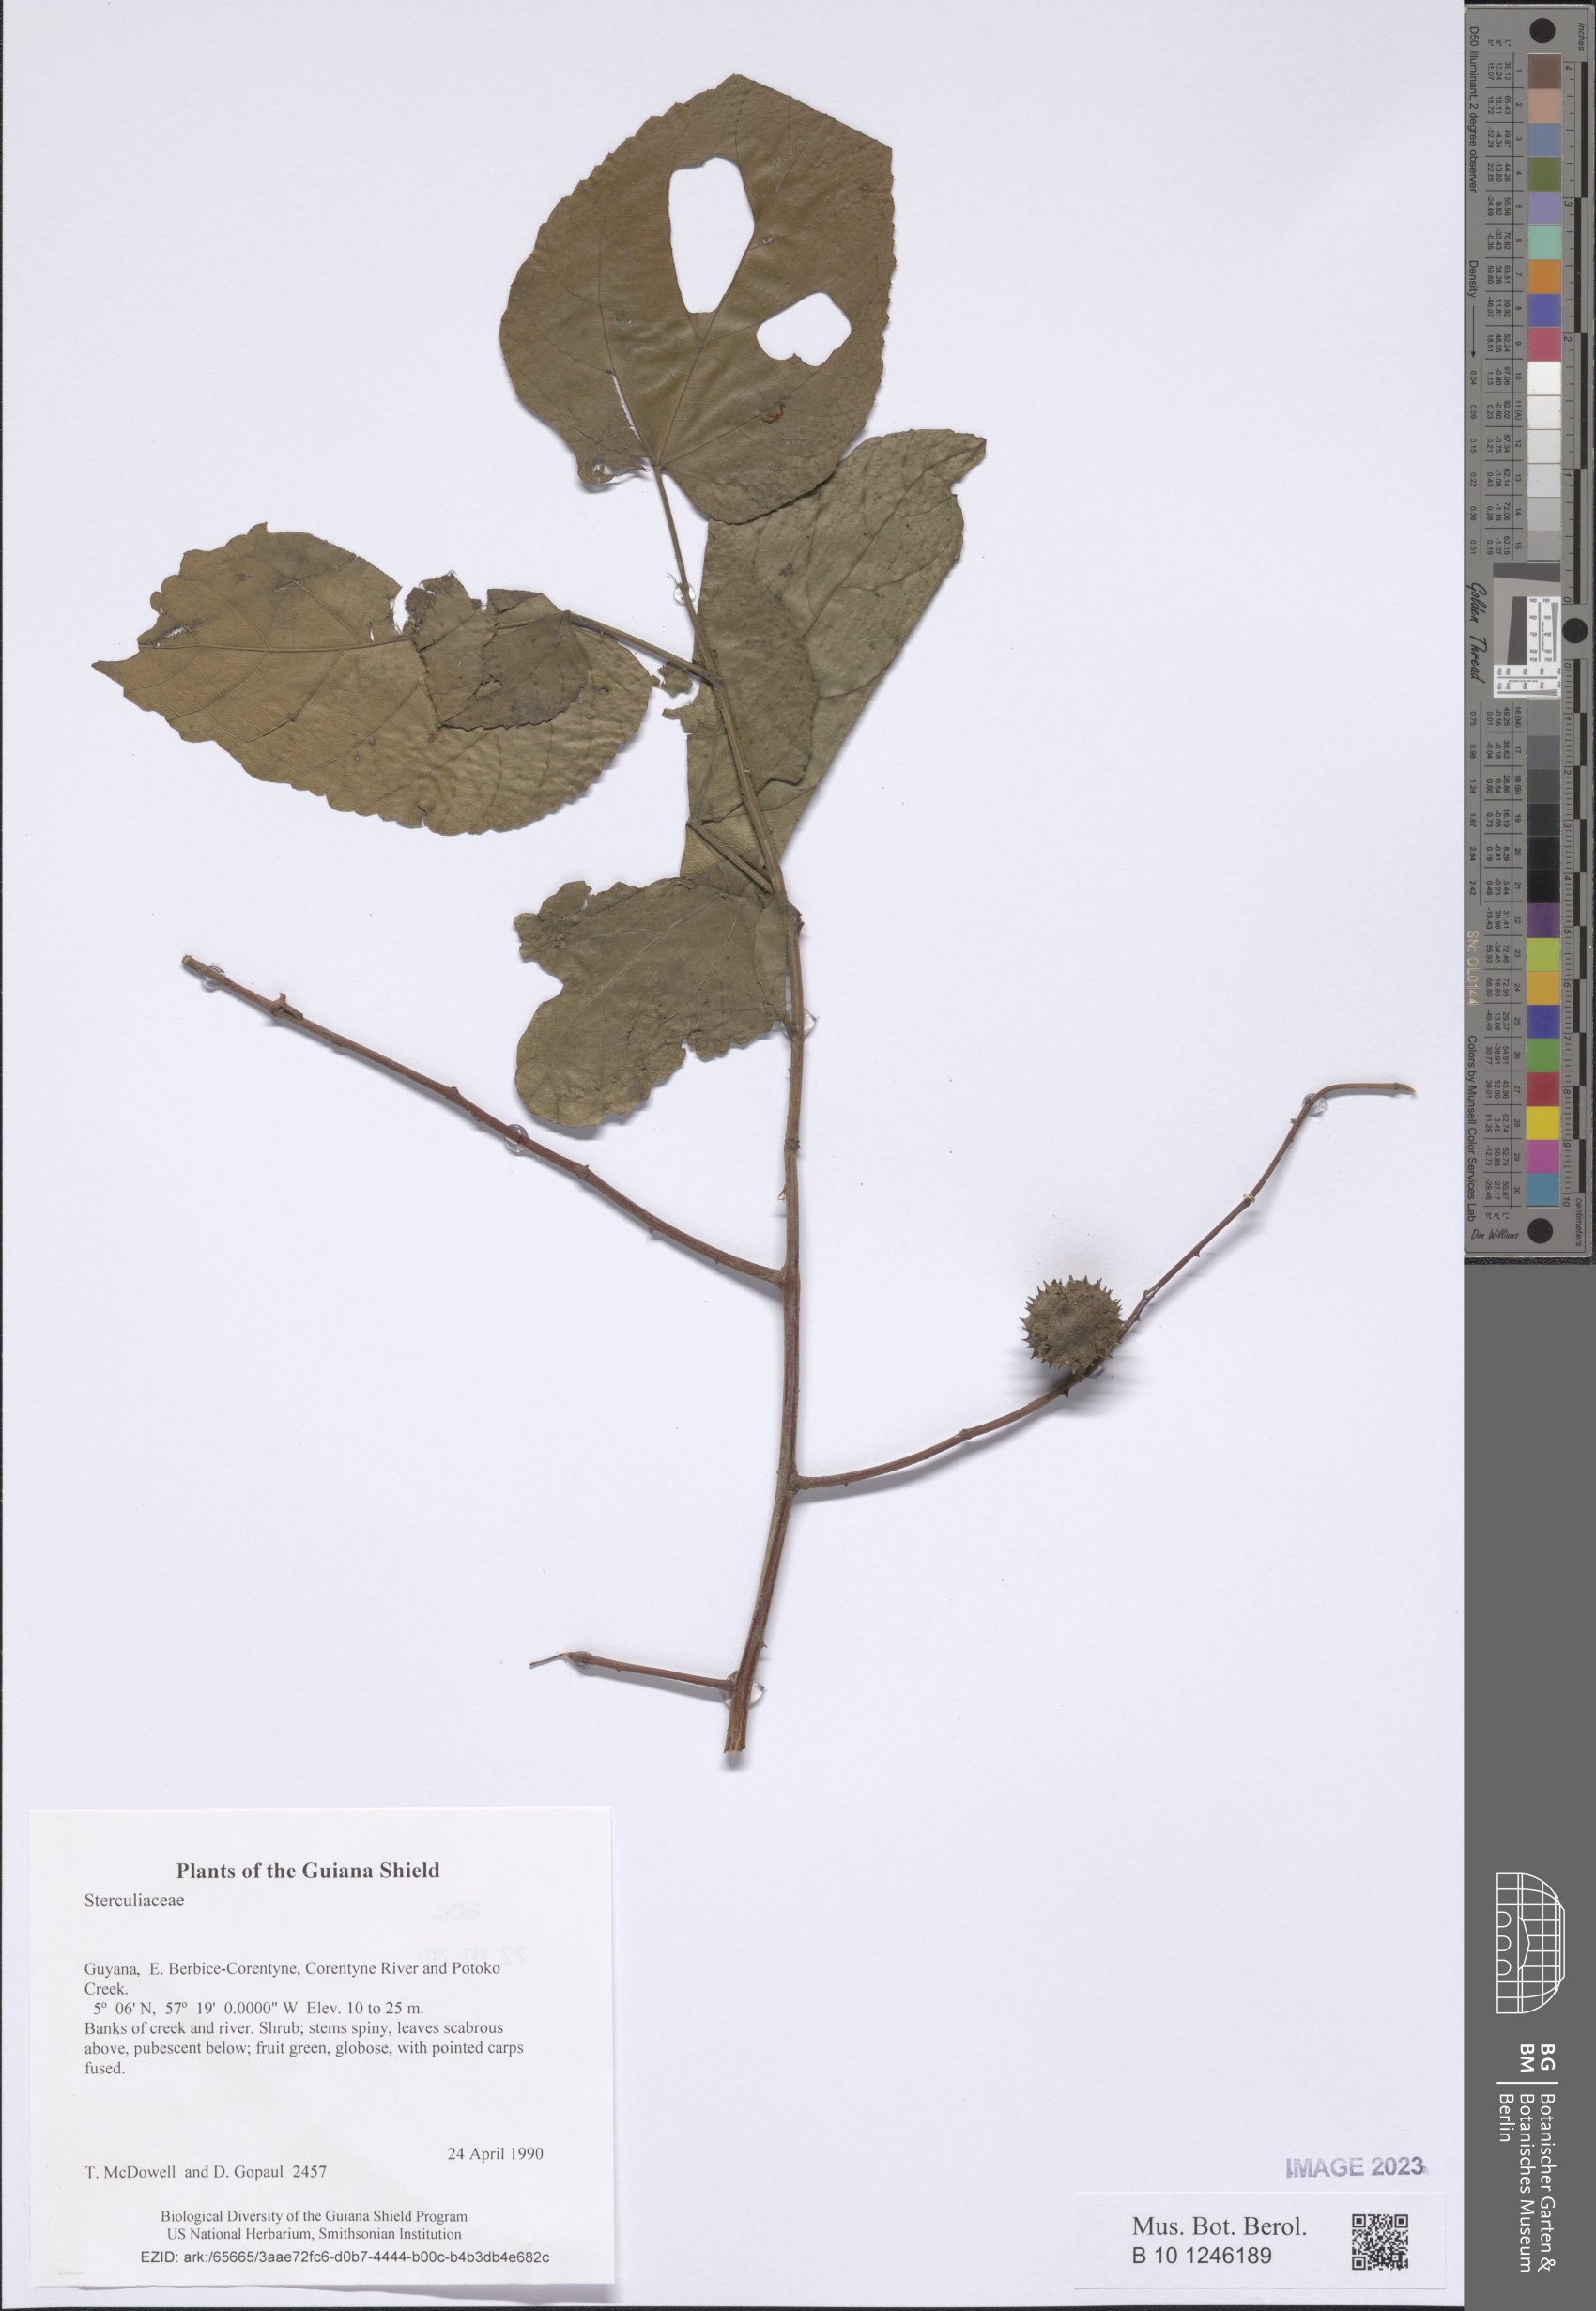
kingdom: Plantae
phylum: Tracheophyta
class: Magnoliopsida
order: Malvales
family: Sterculiaceae
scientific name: Sterculiaceae
